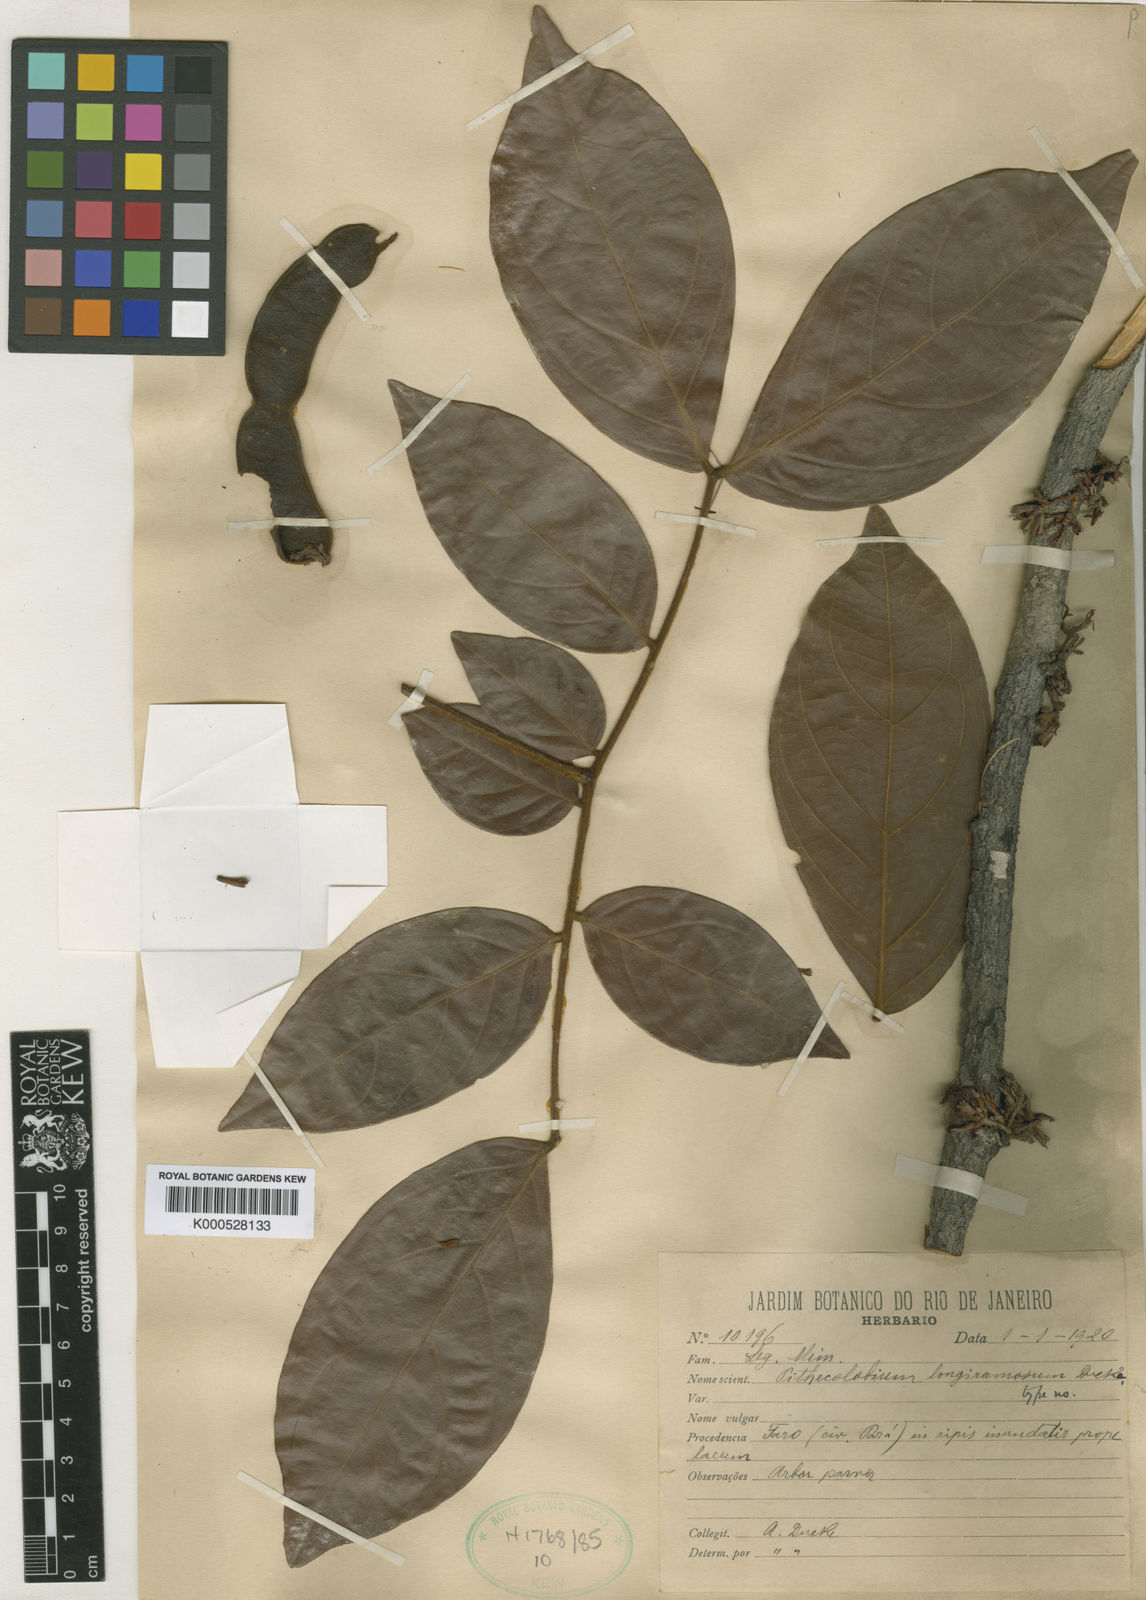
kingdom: Plantae
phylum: Tracheophyta
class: Magnoliopsida
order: Fabales
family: Fabaceae
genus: Zygia
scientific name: Zygia inaequalis
